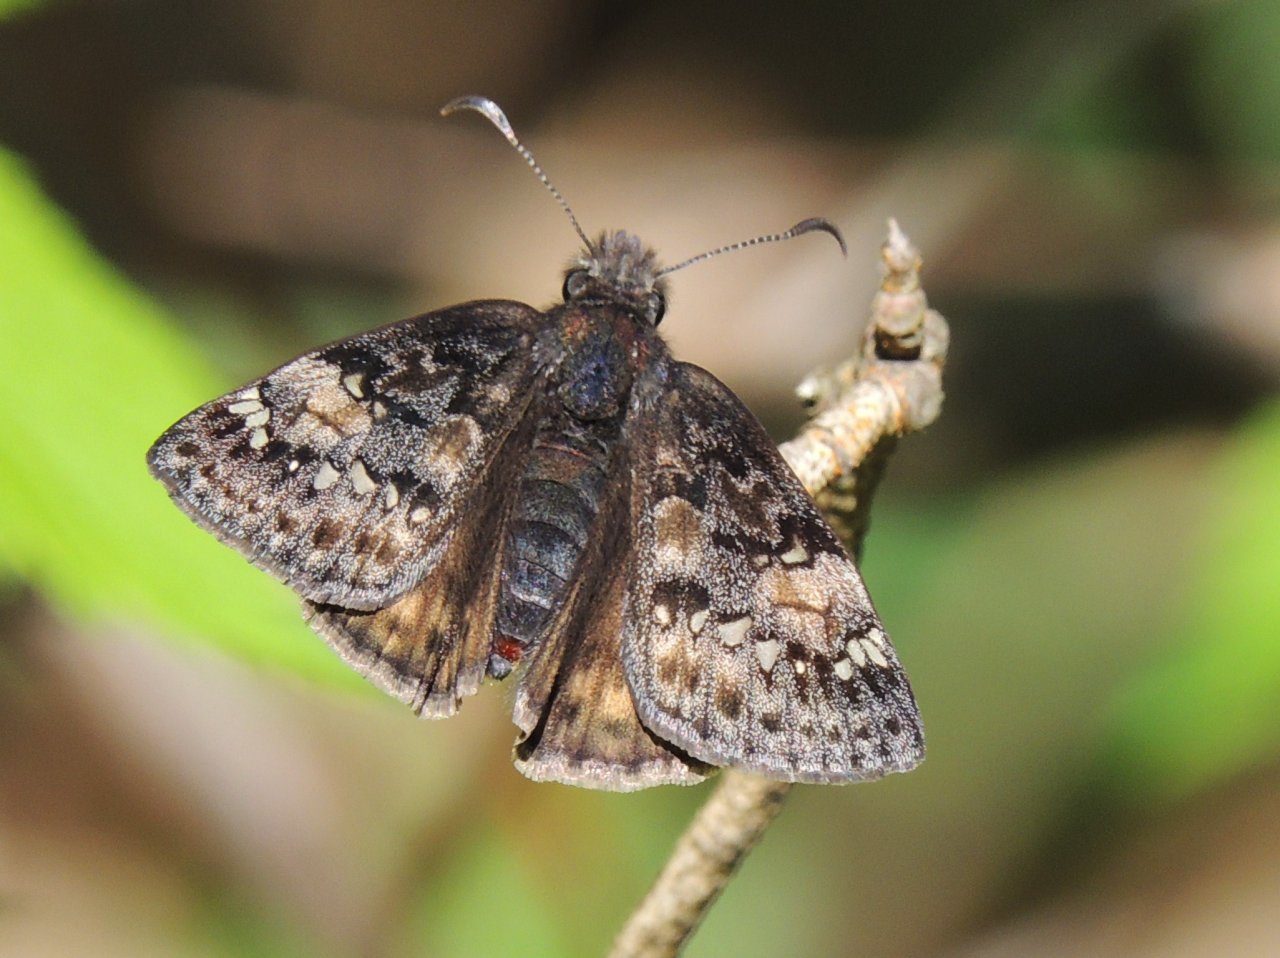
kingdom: Animalia
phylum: Arthropoda
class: Insecta
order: Lepidoptera
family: Hesperiidae
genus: Gesta
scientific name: Gesta
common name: Juvenal's Duskywing
